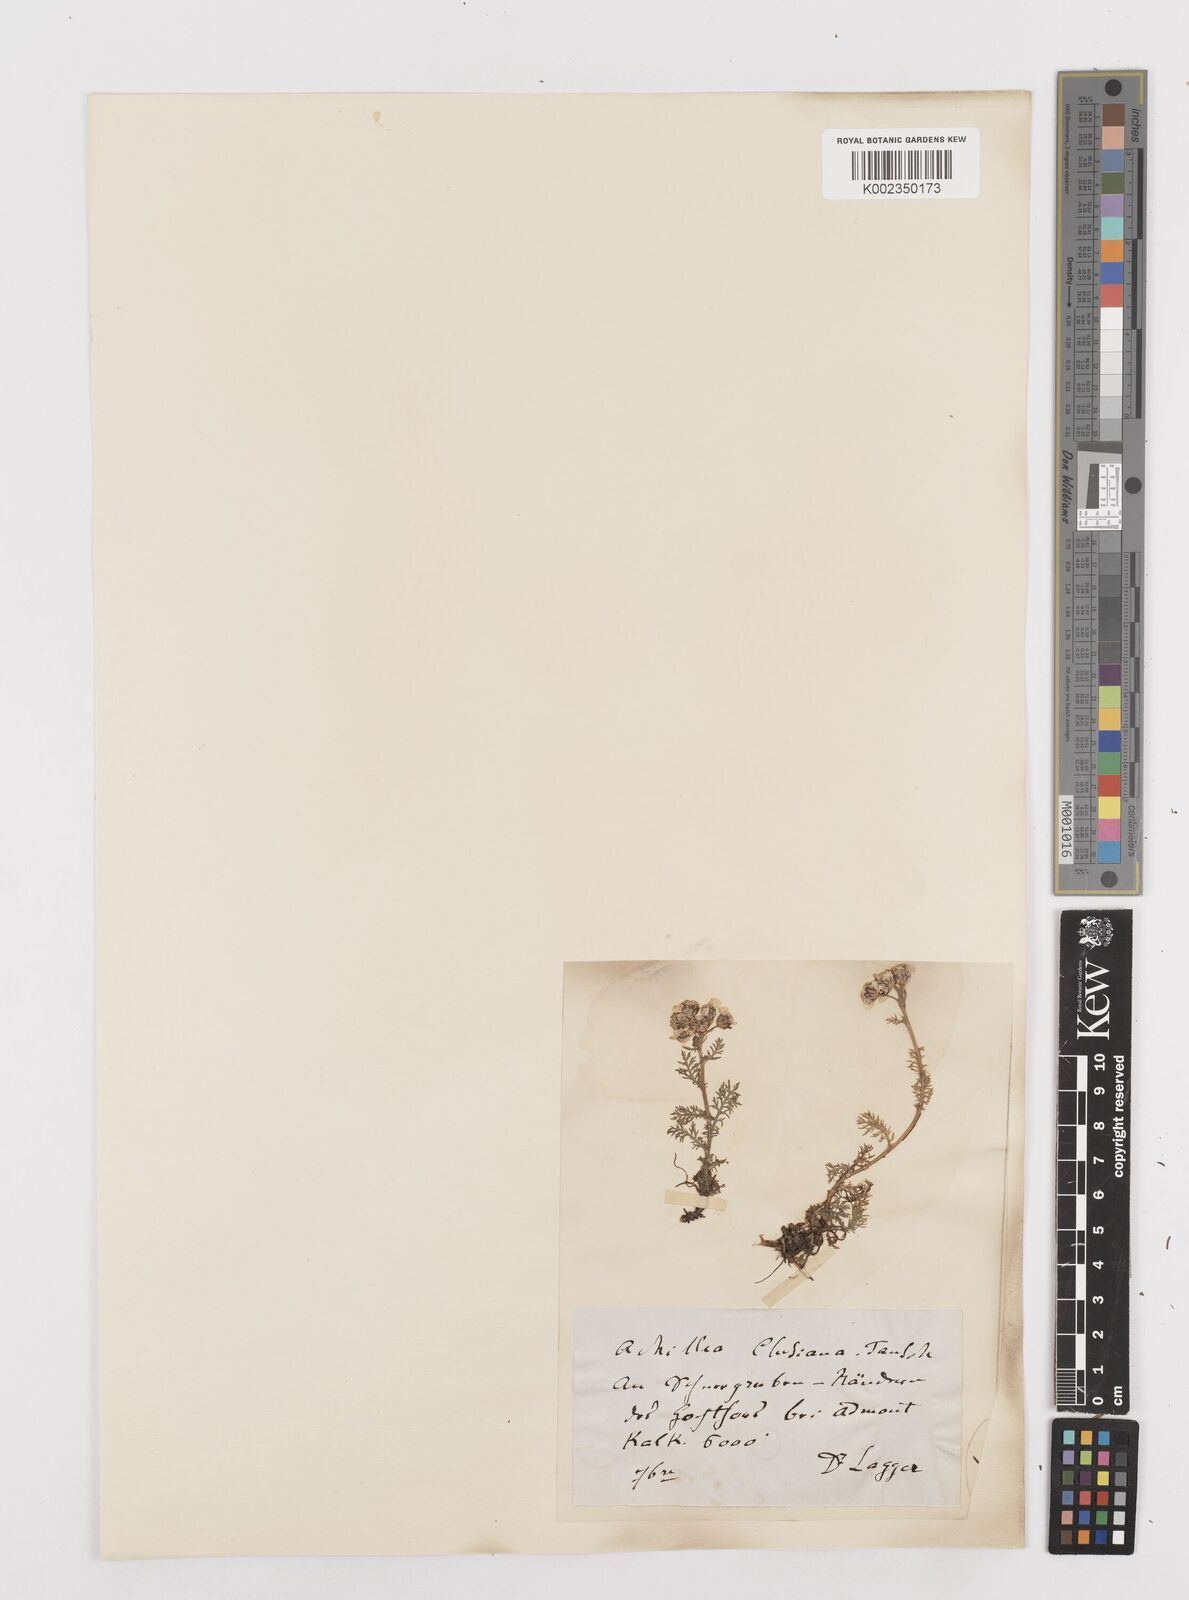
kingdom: Plantae
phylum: Tracheophyta
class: Magnoliopsida
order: Asterales
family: Asteraceae
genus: Achillea
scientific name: Achillea clusiana
